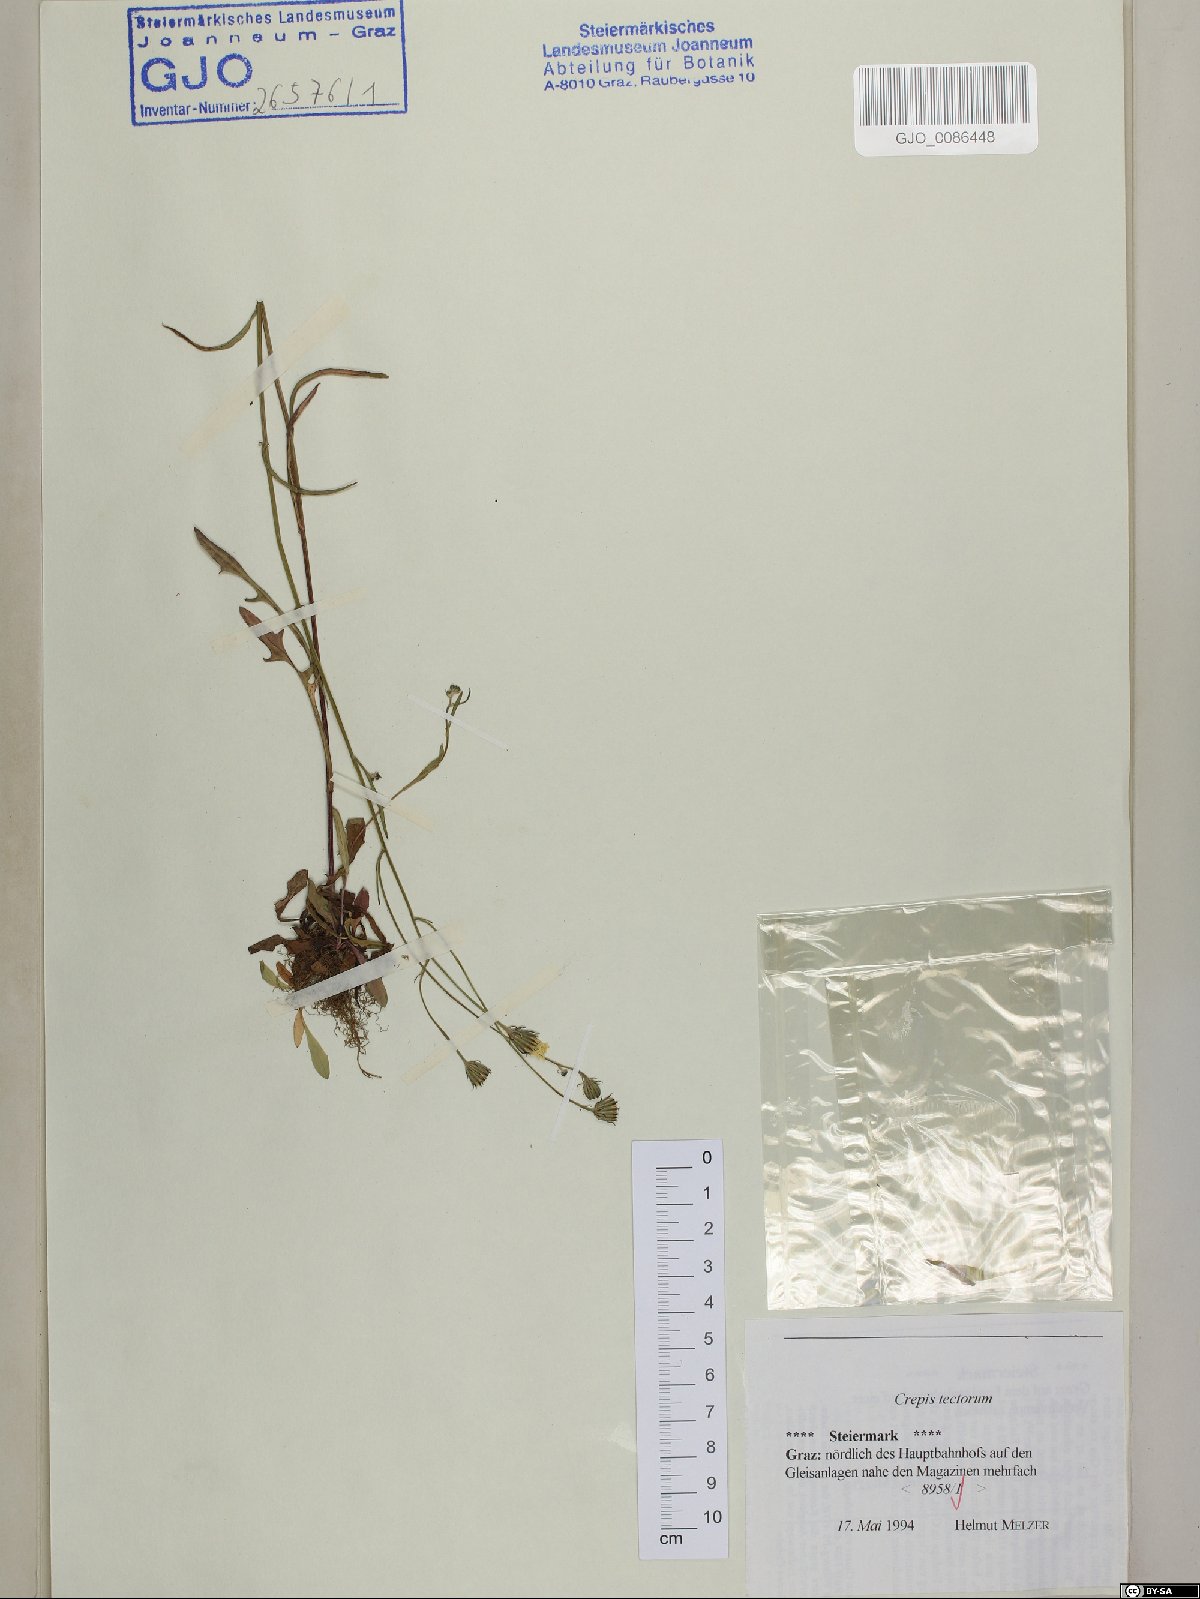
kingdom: Plantae
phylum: Tracheophyta
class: Magnoliopsida
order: Asterales
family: Asteraceae
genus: Crepis
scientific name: Crepis tectorum
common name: Narrow-leaved hawk's-beard
